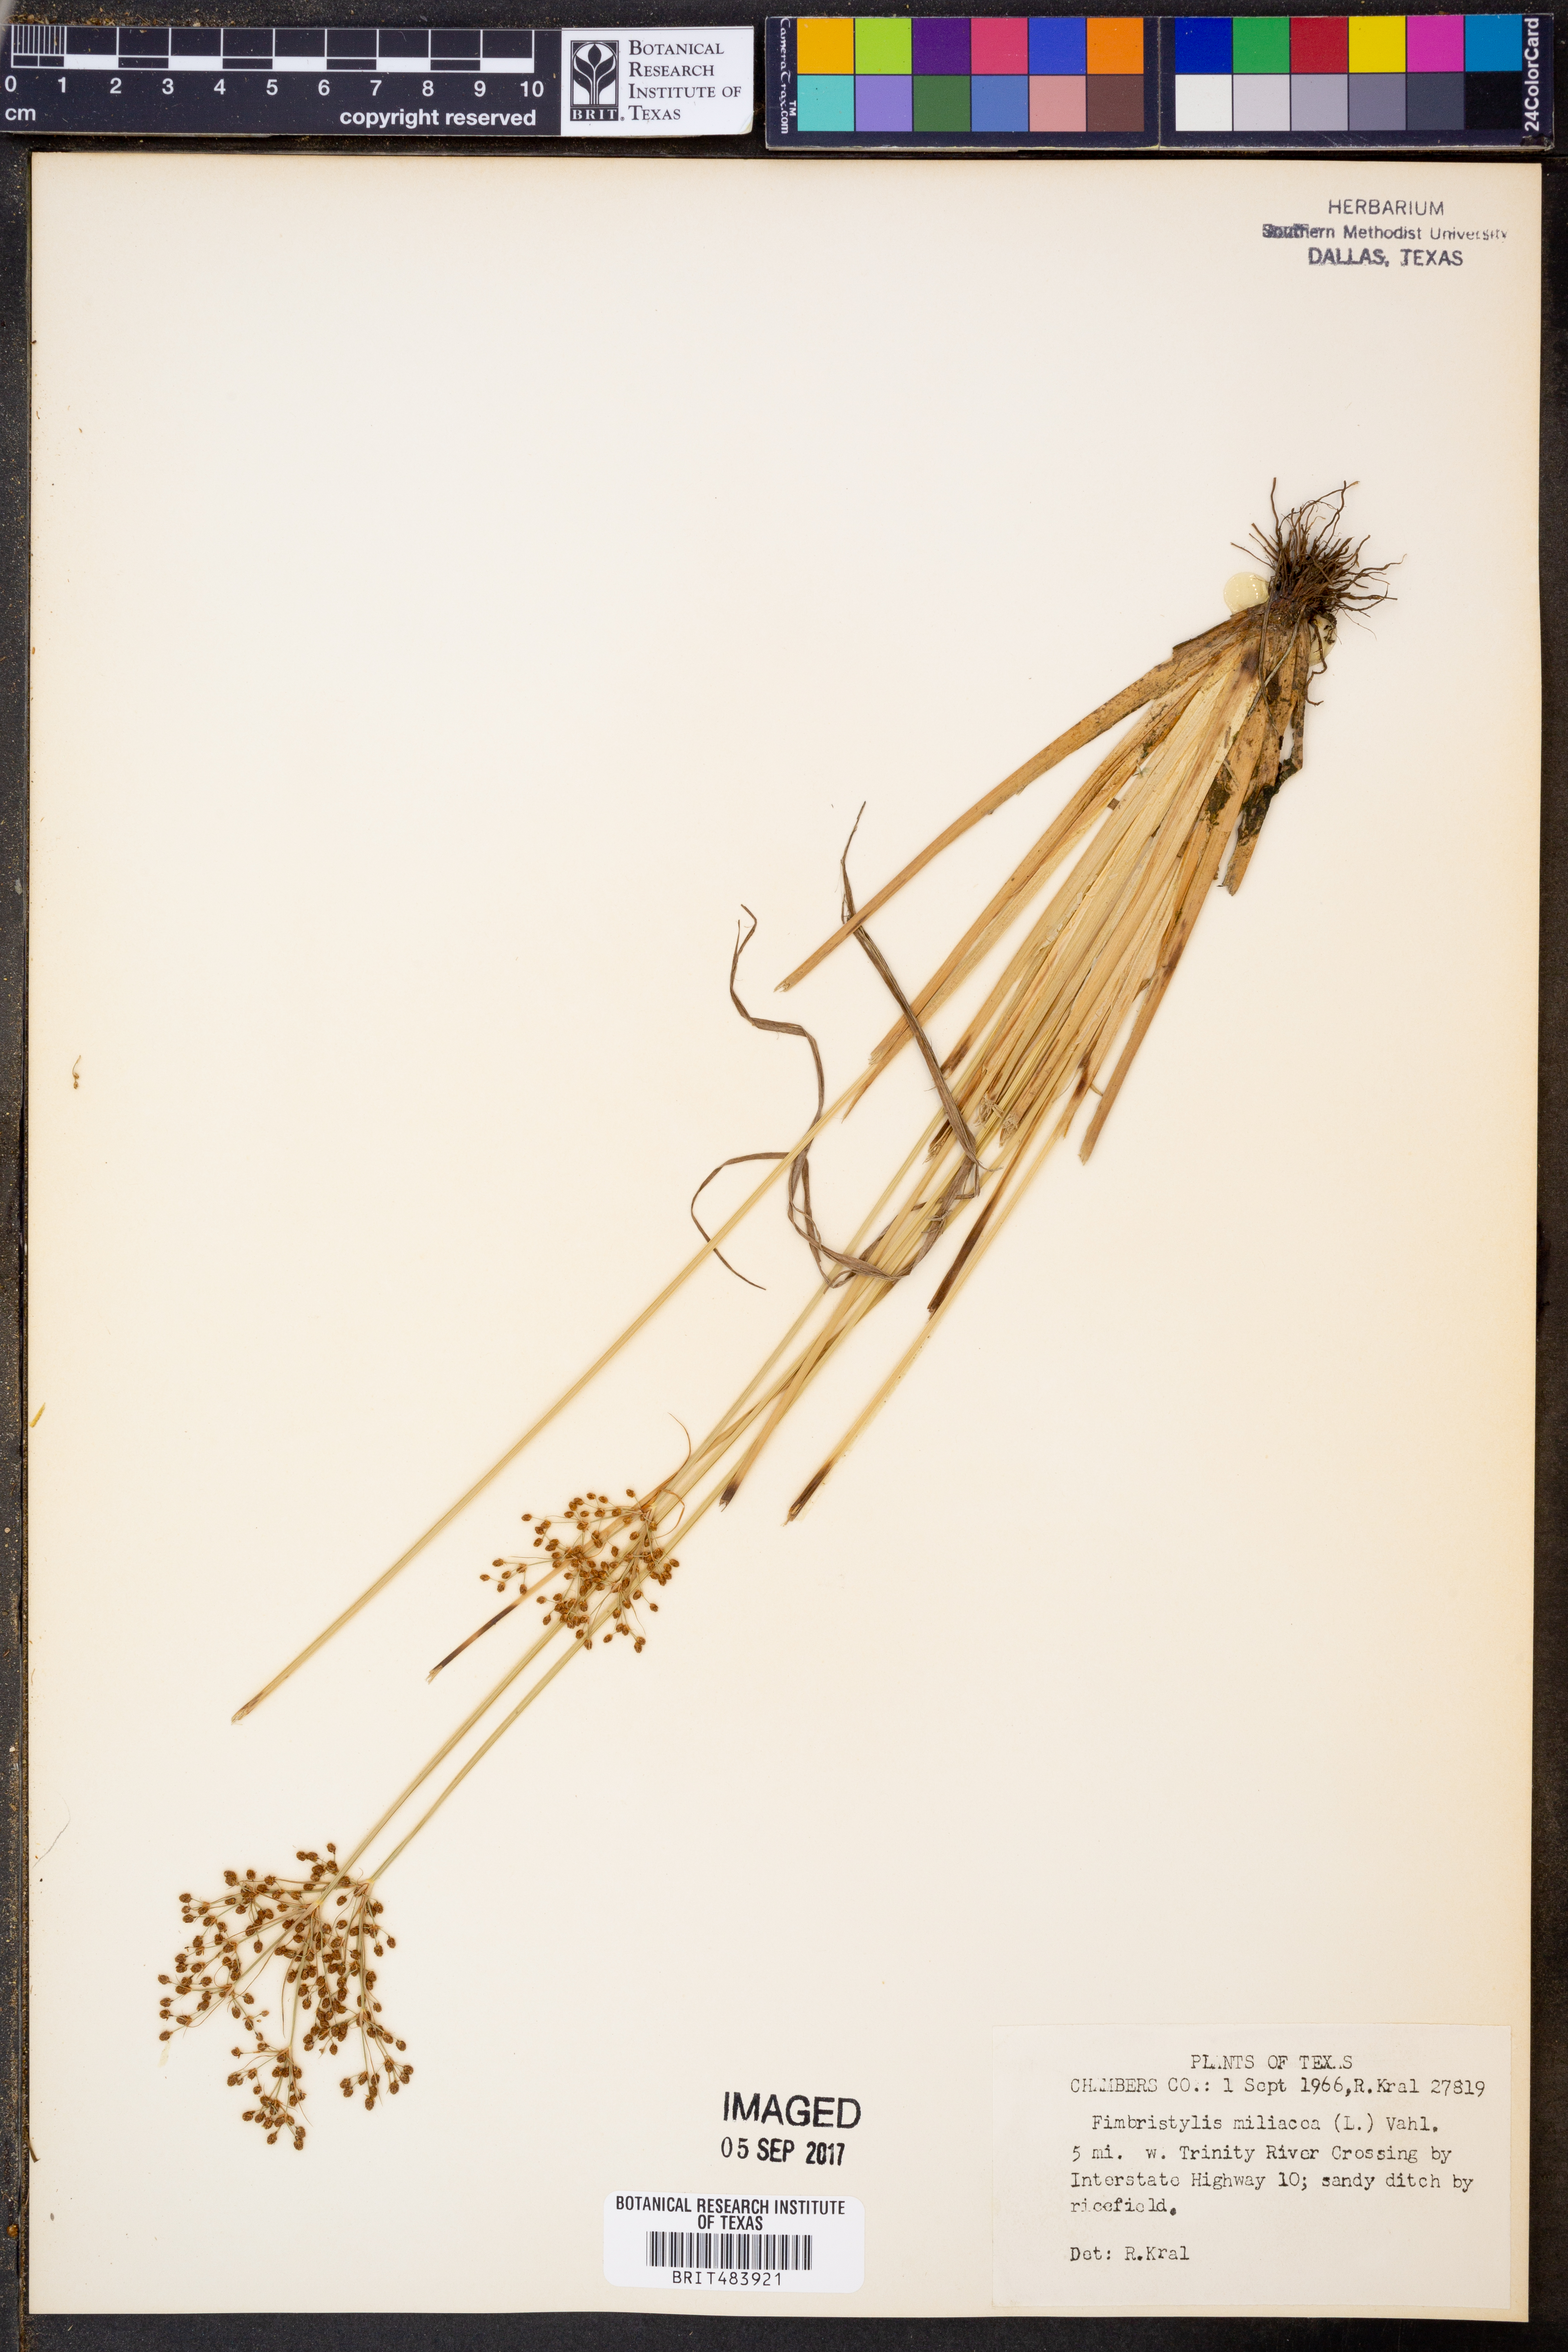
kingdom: Plantae
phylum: Tracheophyta
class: Liliopsida
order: Poales
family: Cyperaceae
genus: Fimbristylis
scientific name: Fimbristylis quinquangularis
